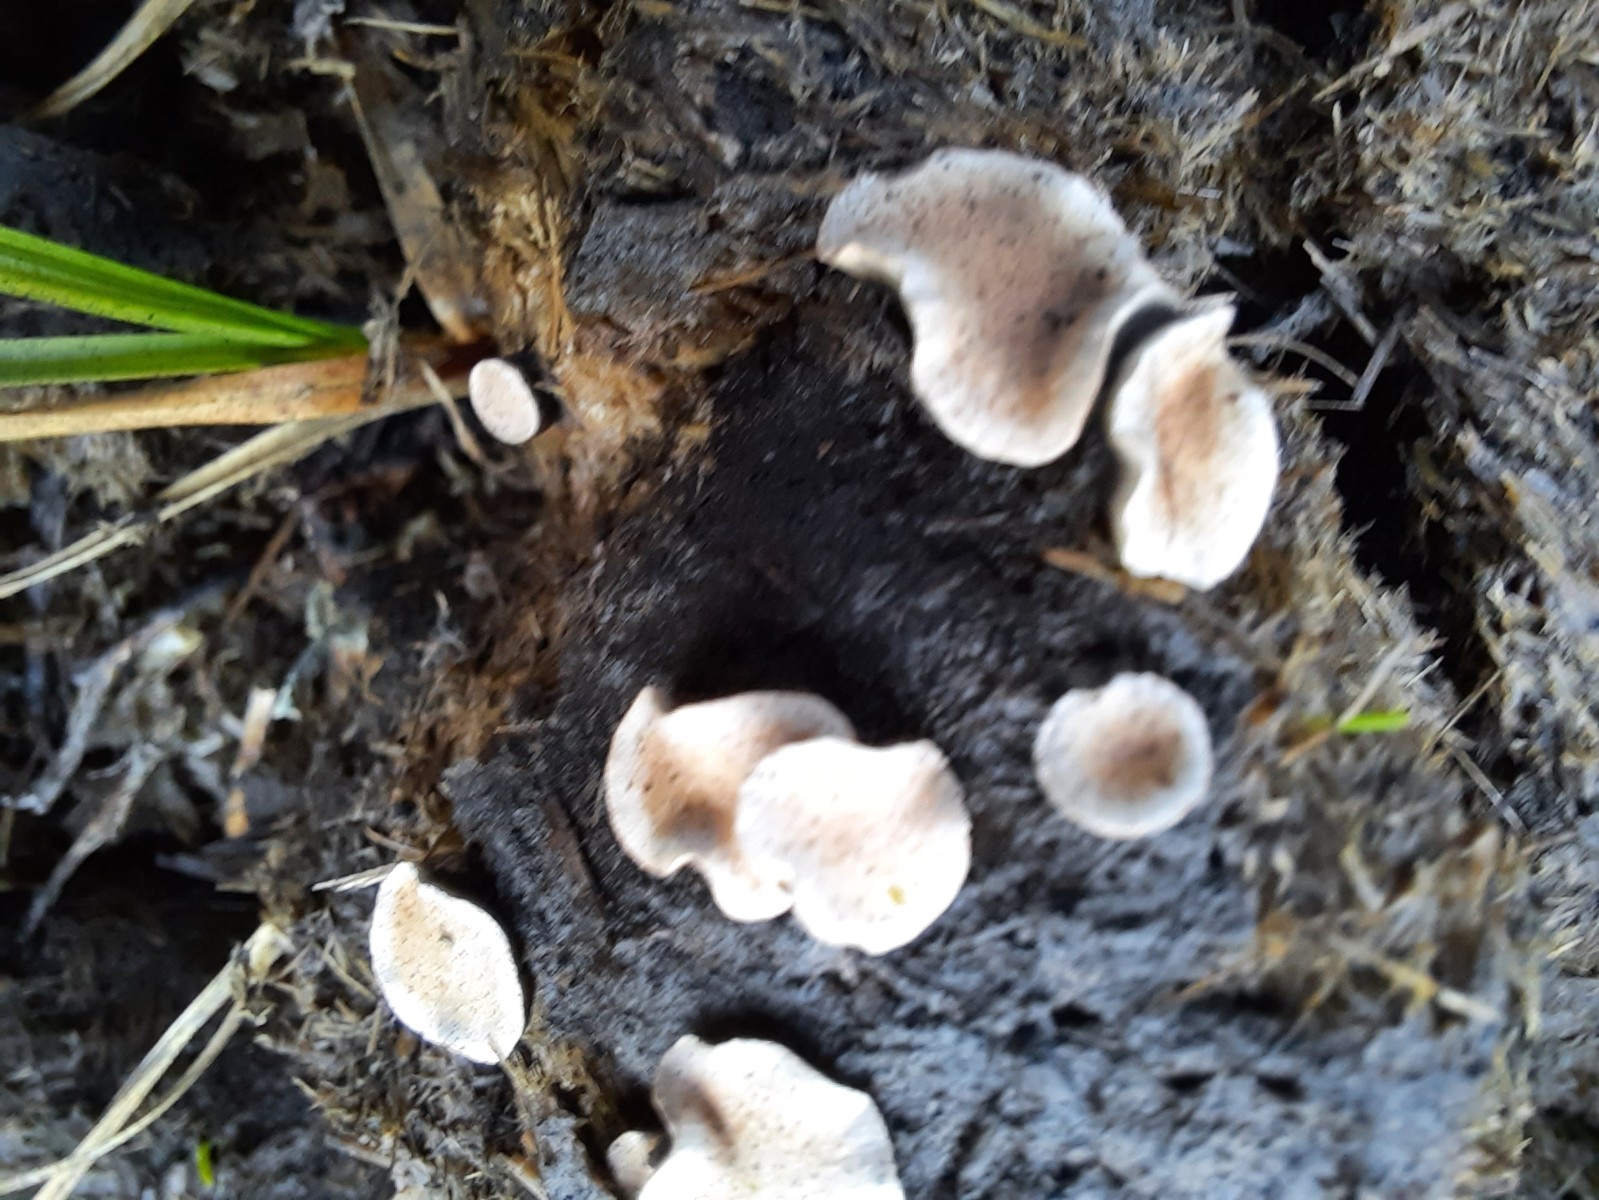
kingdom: Fungi
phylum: Ascomycota
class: Sordariomycetes
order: Xylariales
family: Xylariaceae
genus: Poronia
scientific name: Poronia punctata
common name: stor priksvamp
